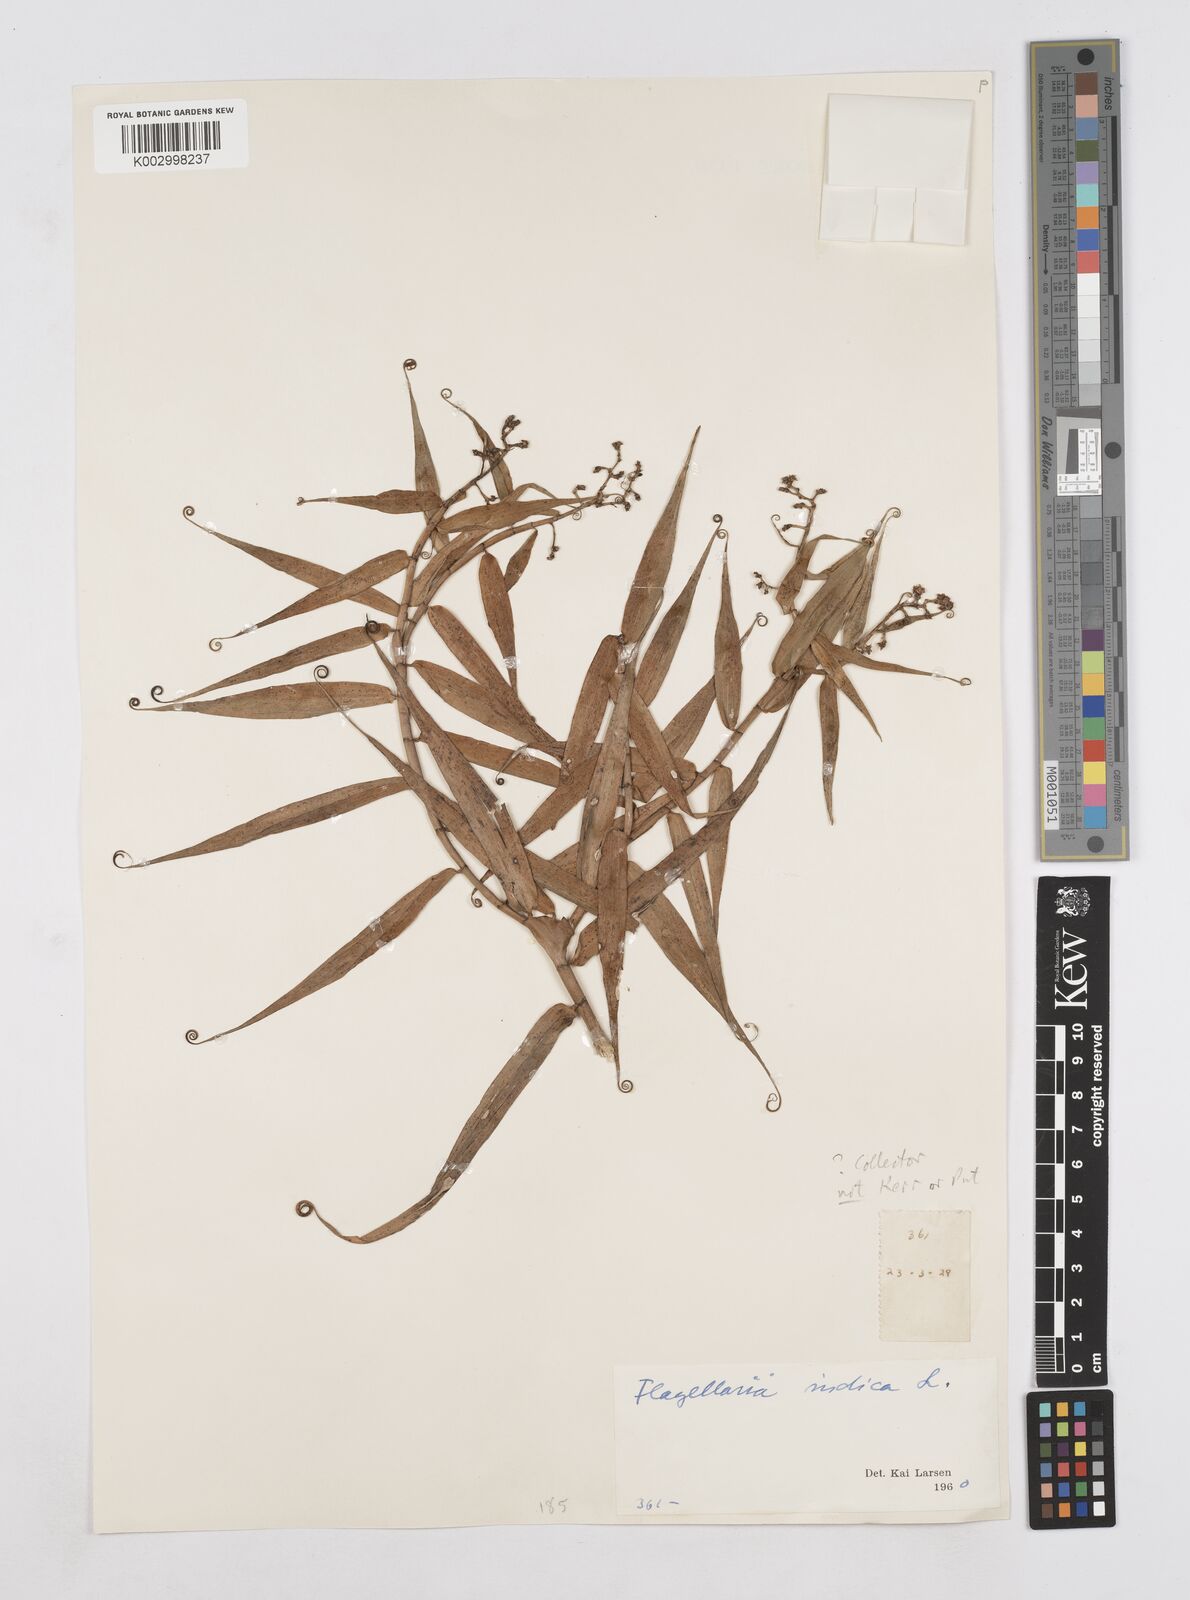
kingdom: Plantae
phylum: Tracheophyta
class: Liliopsida
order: Poales
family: Flagellariaceae
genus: Flagellaria
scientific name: Flagellaria indica
